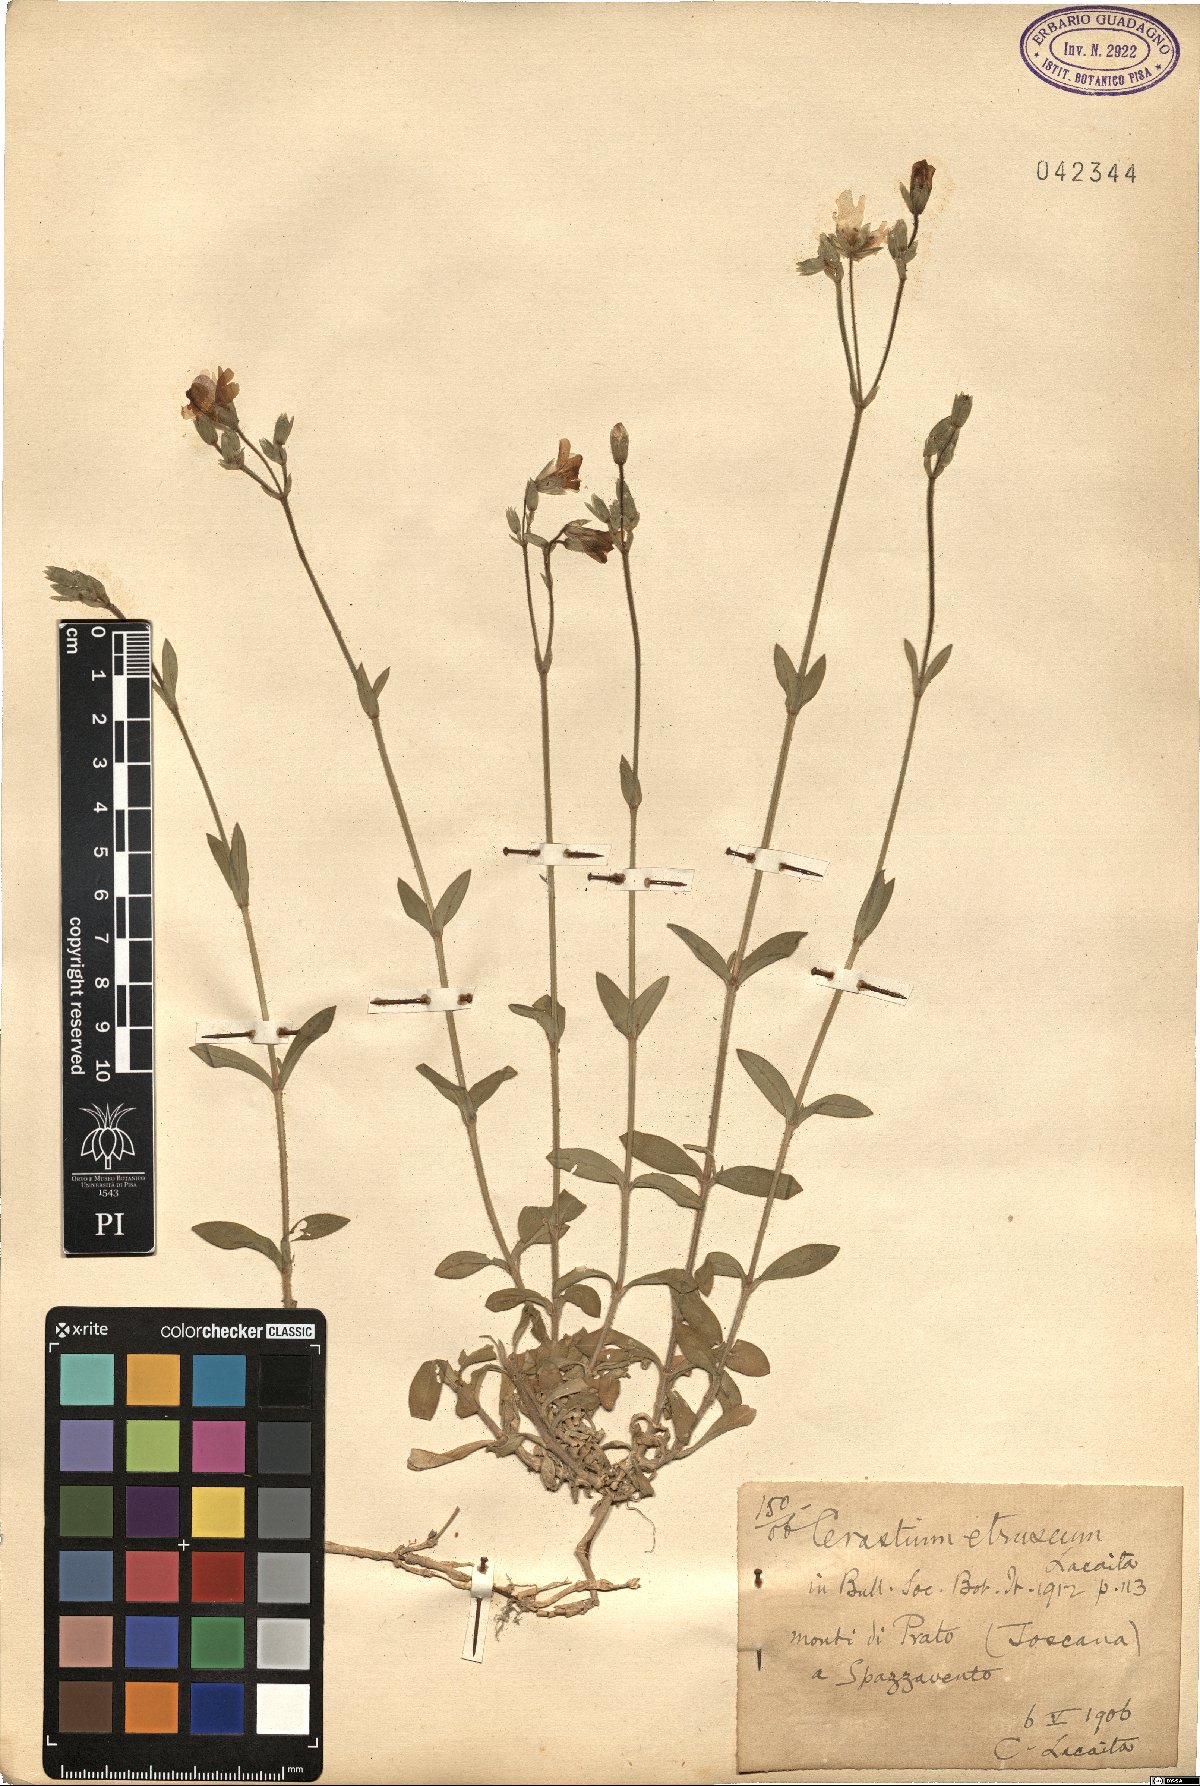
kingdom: Plantae
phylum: Tracheophyta
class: Magnoliopsida
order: Caryophyllales
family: Caryophyllaceae
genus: Cerastium
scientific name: Cerastium scaranii
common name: Italian mouse-ear
